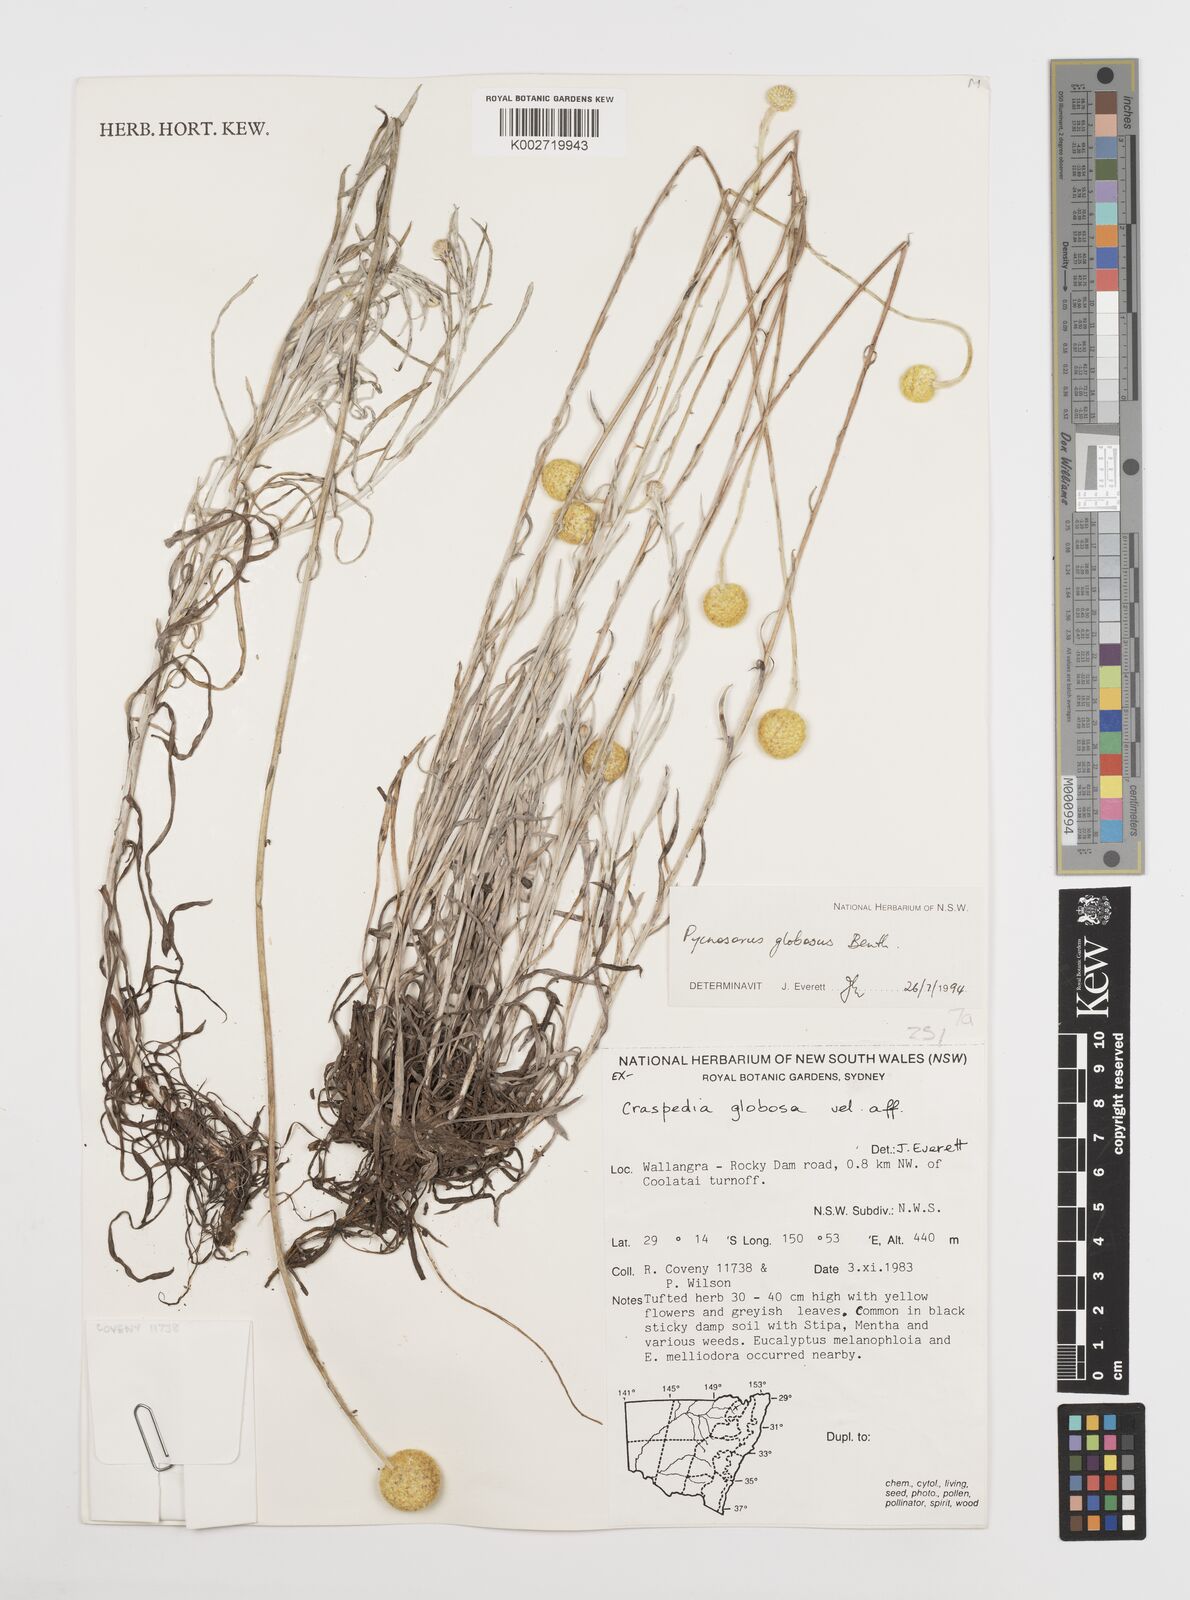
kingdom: Plantae
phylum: Tracheophyta
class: Magnoliopsida
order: Asterales
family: Asteraceae
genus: Pycnosorus
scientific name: Pycnosorus globosus
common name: Drumsticks
